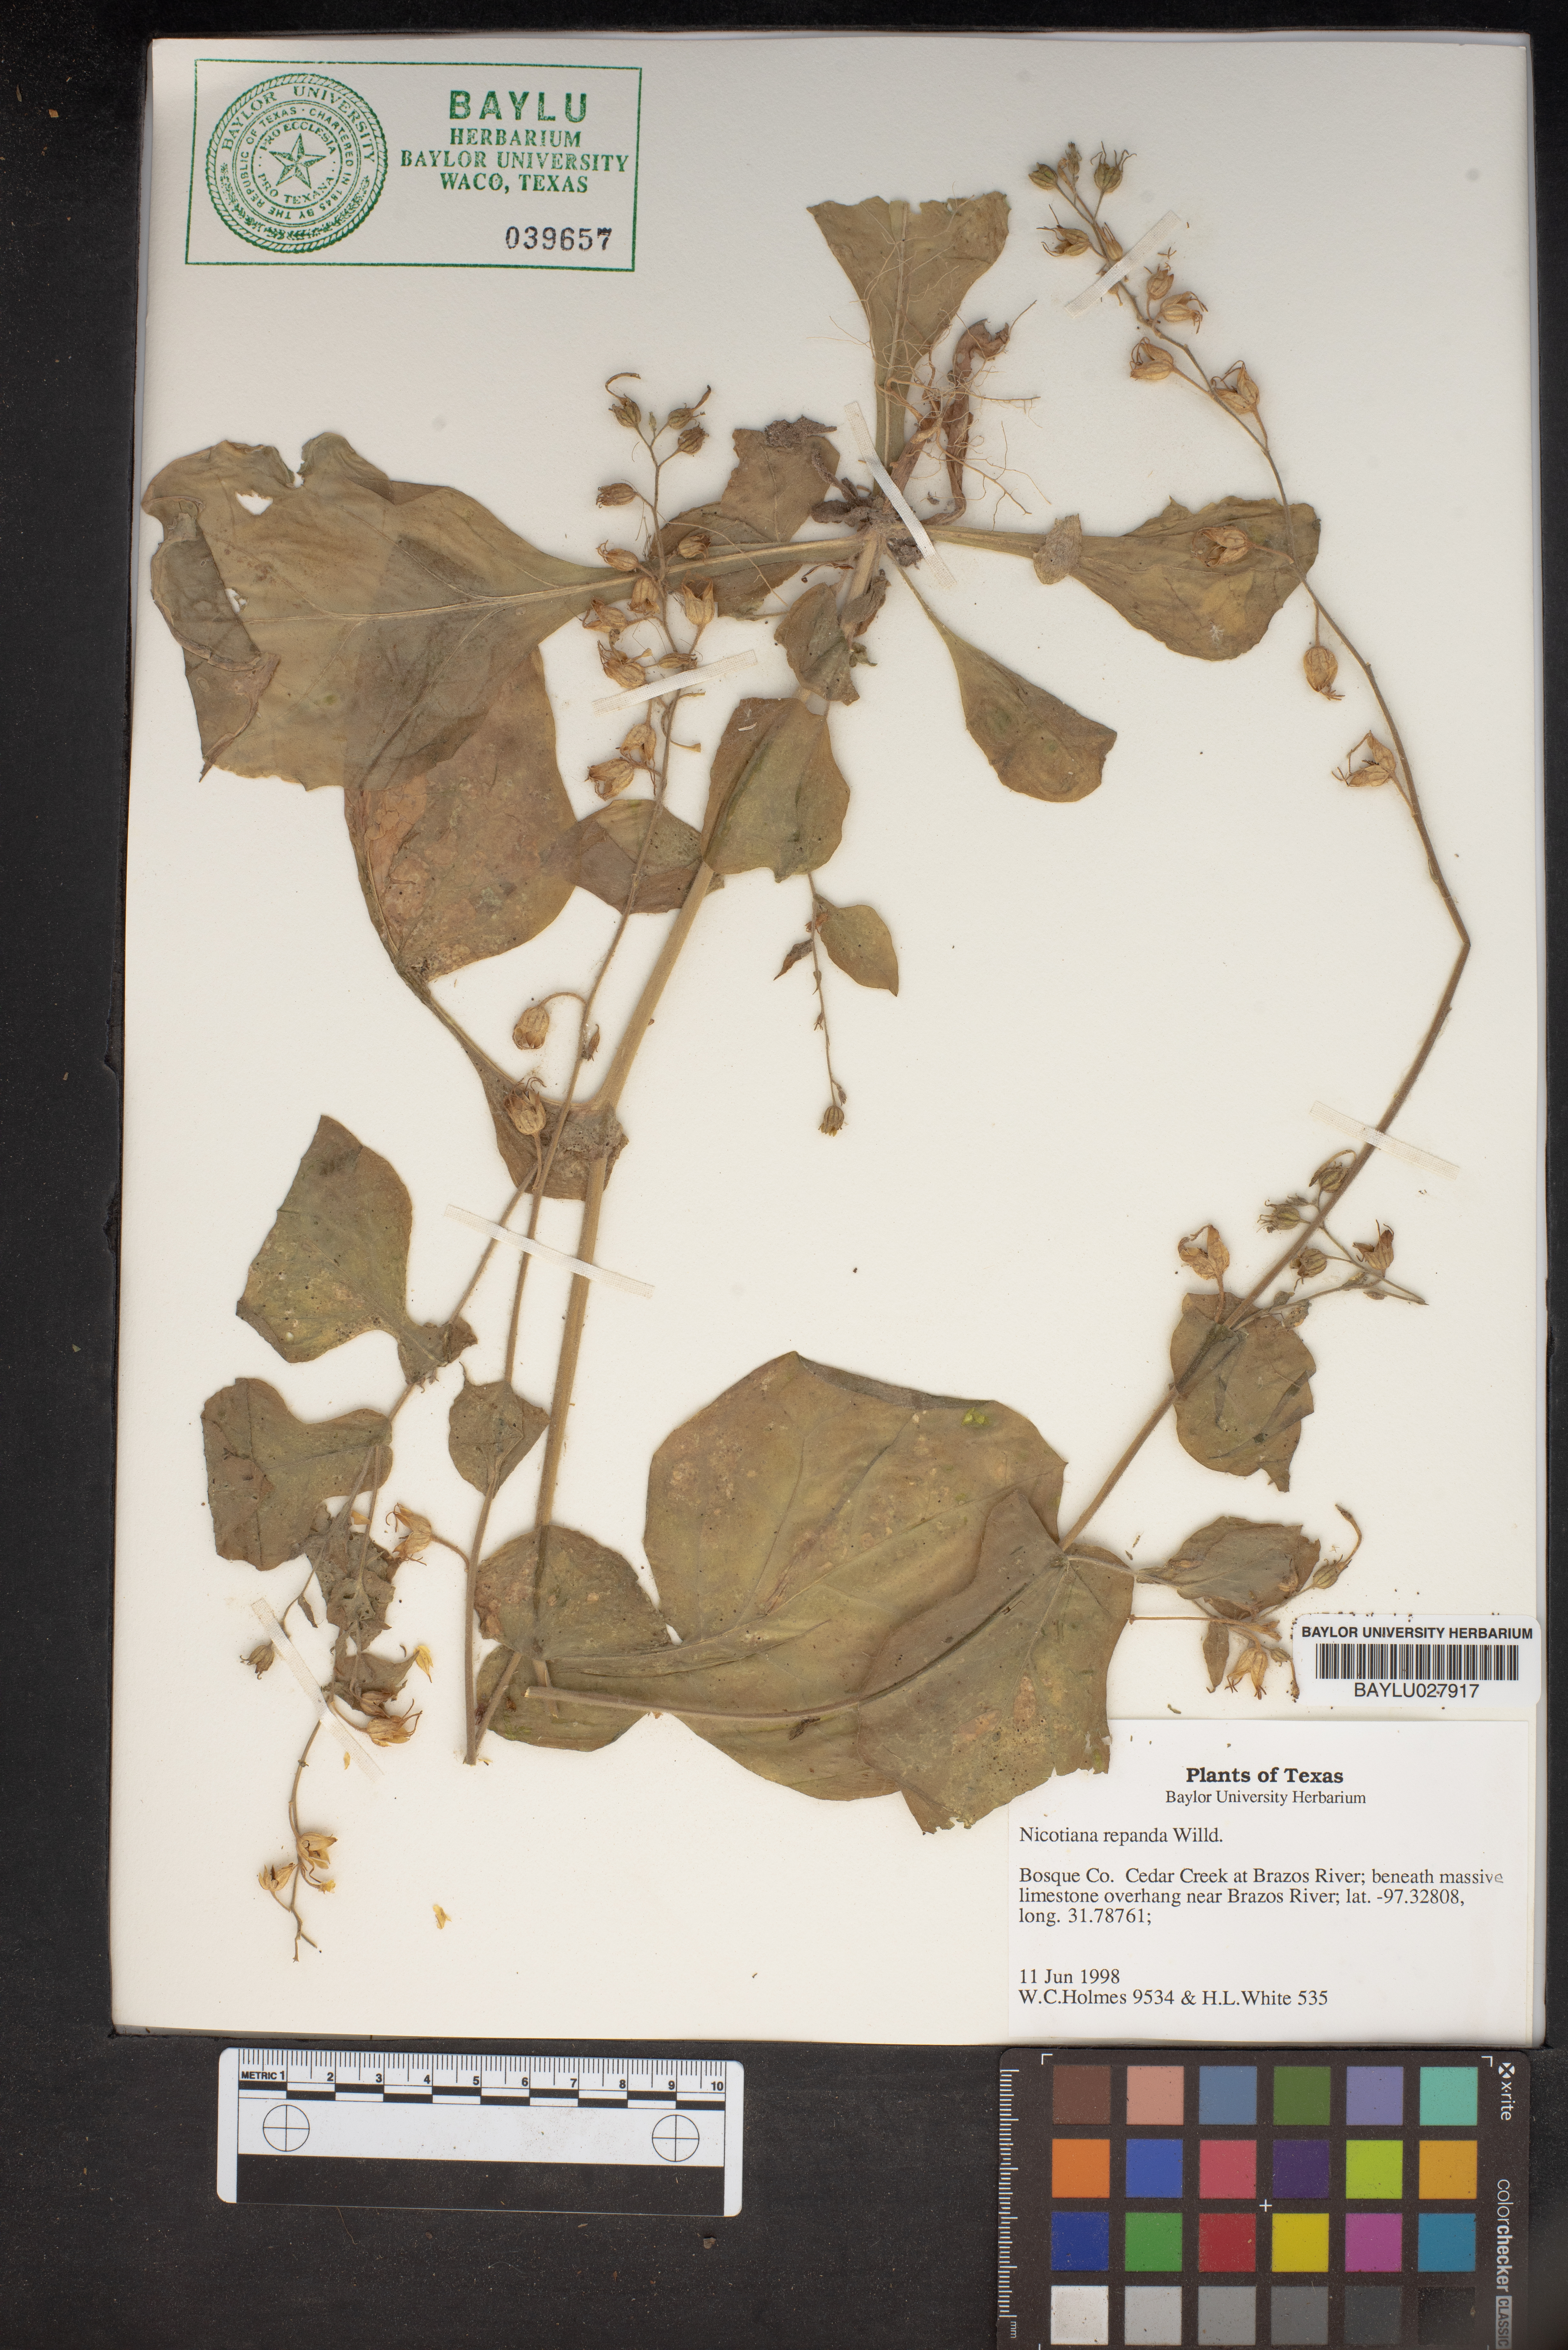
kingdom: Plantae
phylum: Tracheophyta
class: Magnoliopsida
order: Solanales
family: Solanaceae
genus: Nicotiana
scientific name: Nicotiana repanda
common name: Fiddle-leaf tobacco
